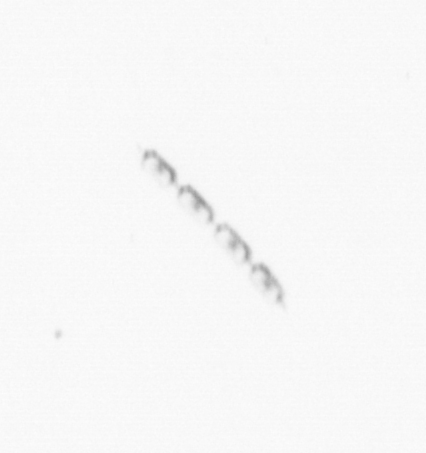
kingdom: Chromista
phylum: Ochrophyta
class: Bacillariophyceae
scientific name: Bacillariophyceae
